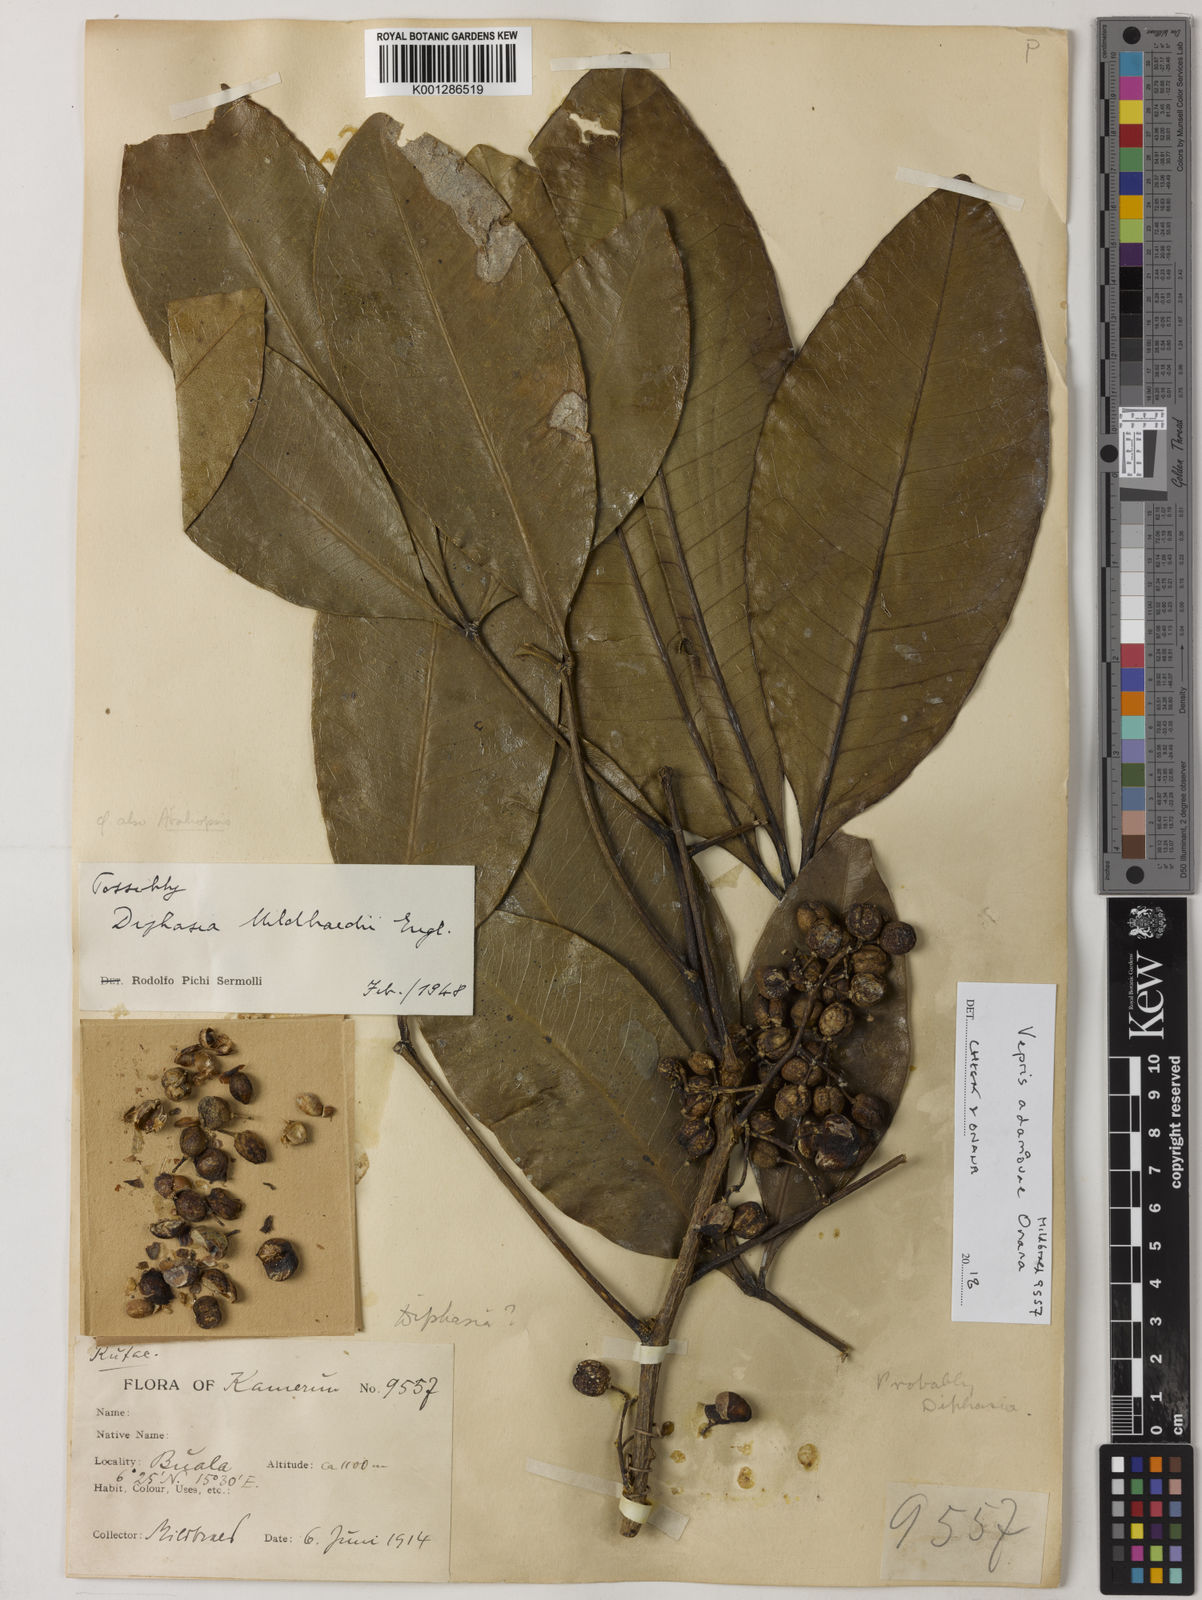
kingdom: Plantae
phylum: Tracheophyta
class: Magnoliopsida
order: Sapindales
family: Rutaceae
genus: Vepris
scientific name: Vepris adamaouae
